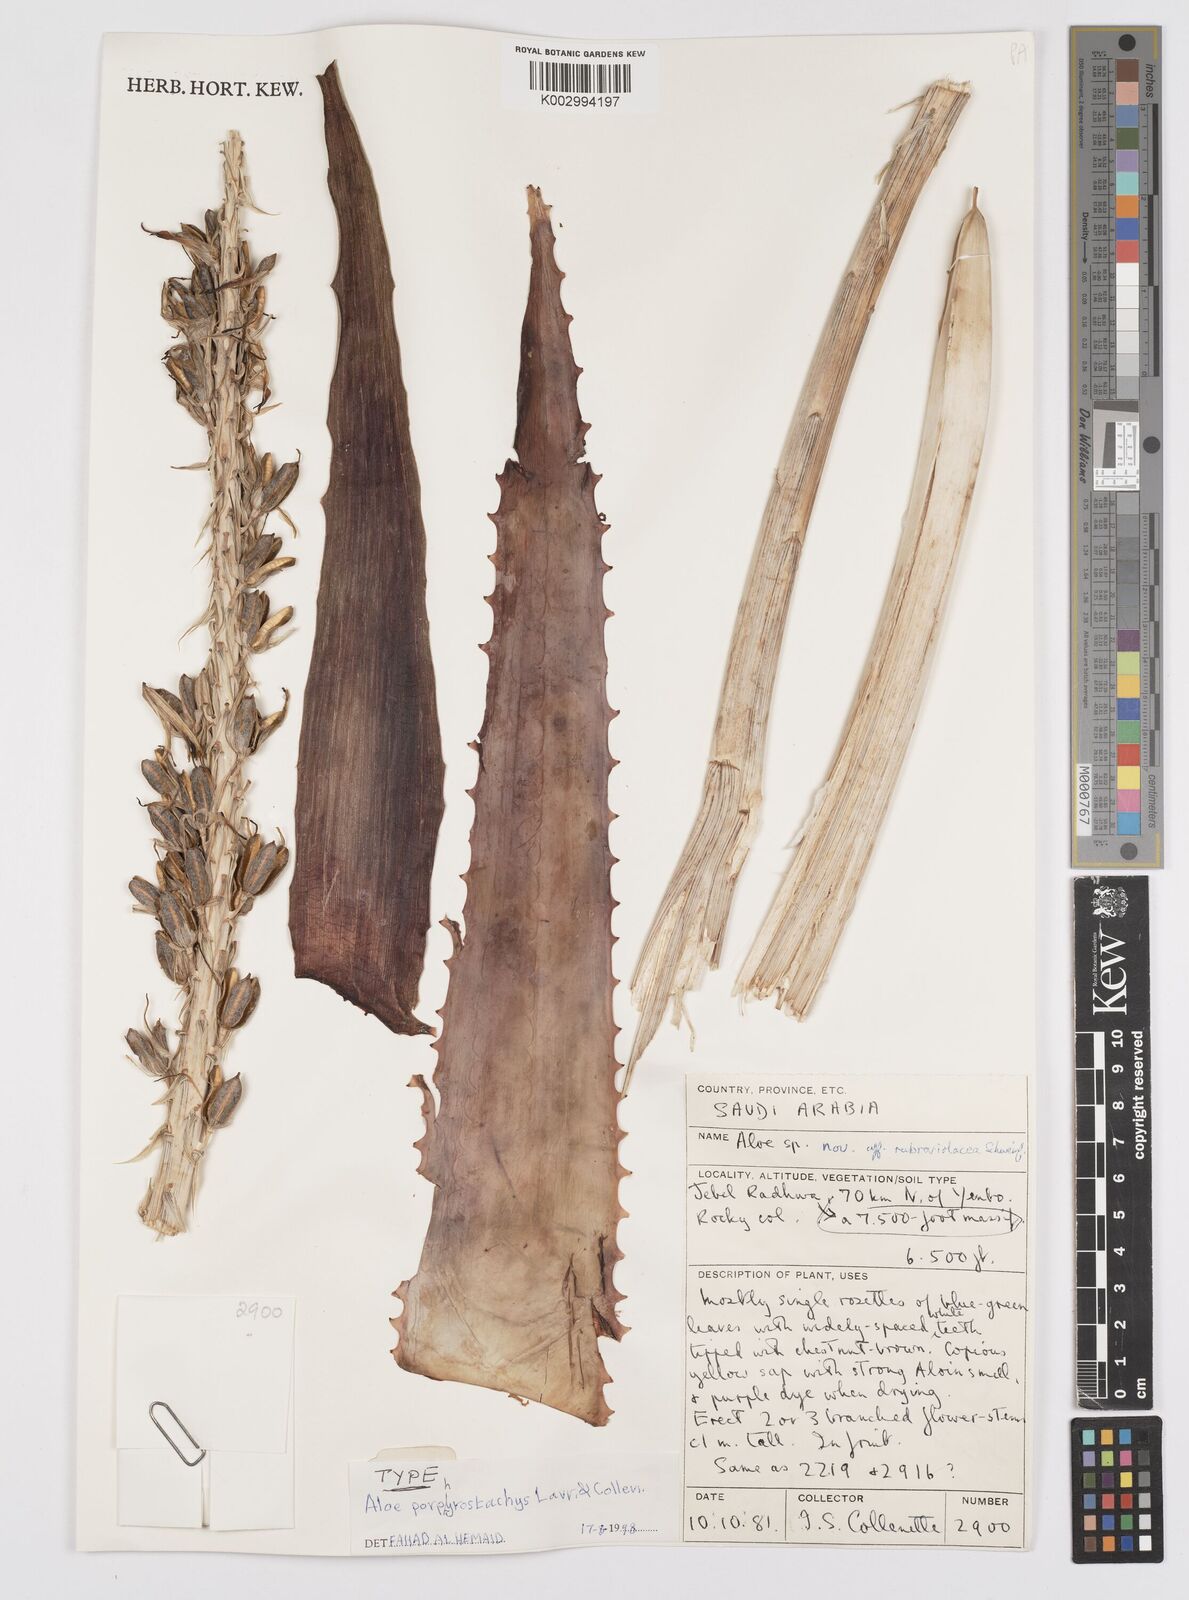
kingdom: Plantae
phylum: Tracheophyta
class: Liliopsida
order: Asparagales
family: Asphodelaceae
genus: Aloe
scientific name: Aloe porphyrostachys
